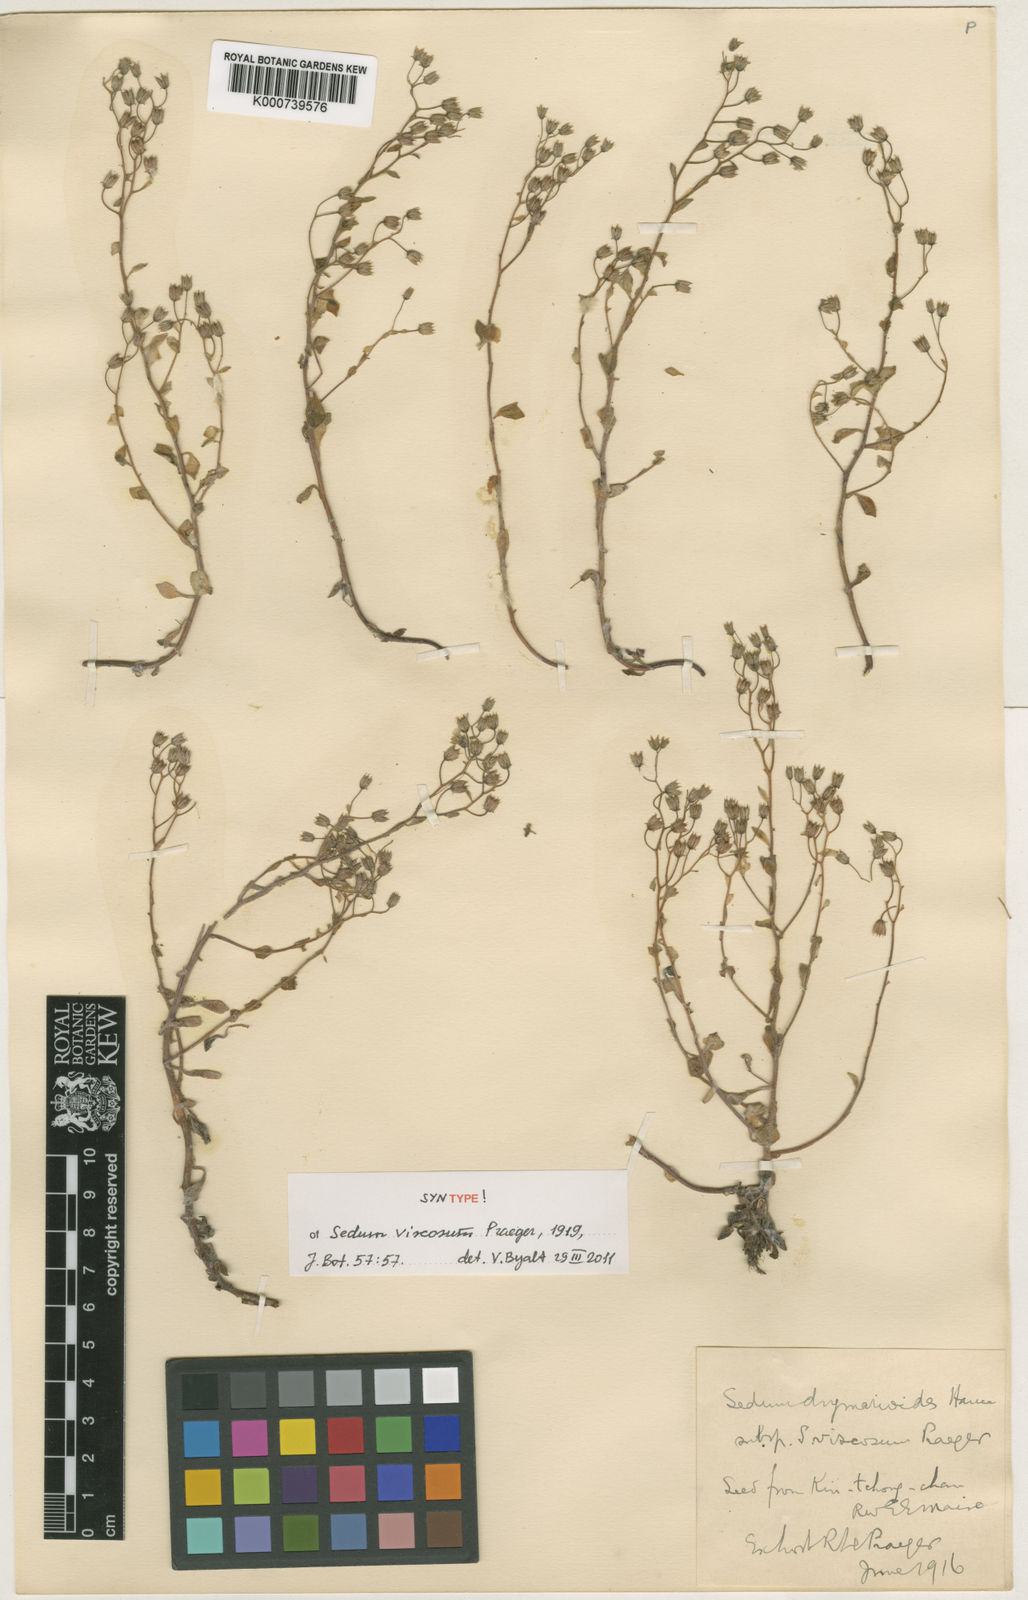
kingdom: Plantae
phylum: Tracheophyta
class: Magnoliopsida
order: Saxifragales
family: Crassulaceae
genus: Sedum
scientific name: Sedum stellariifolium
